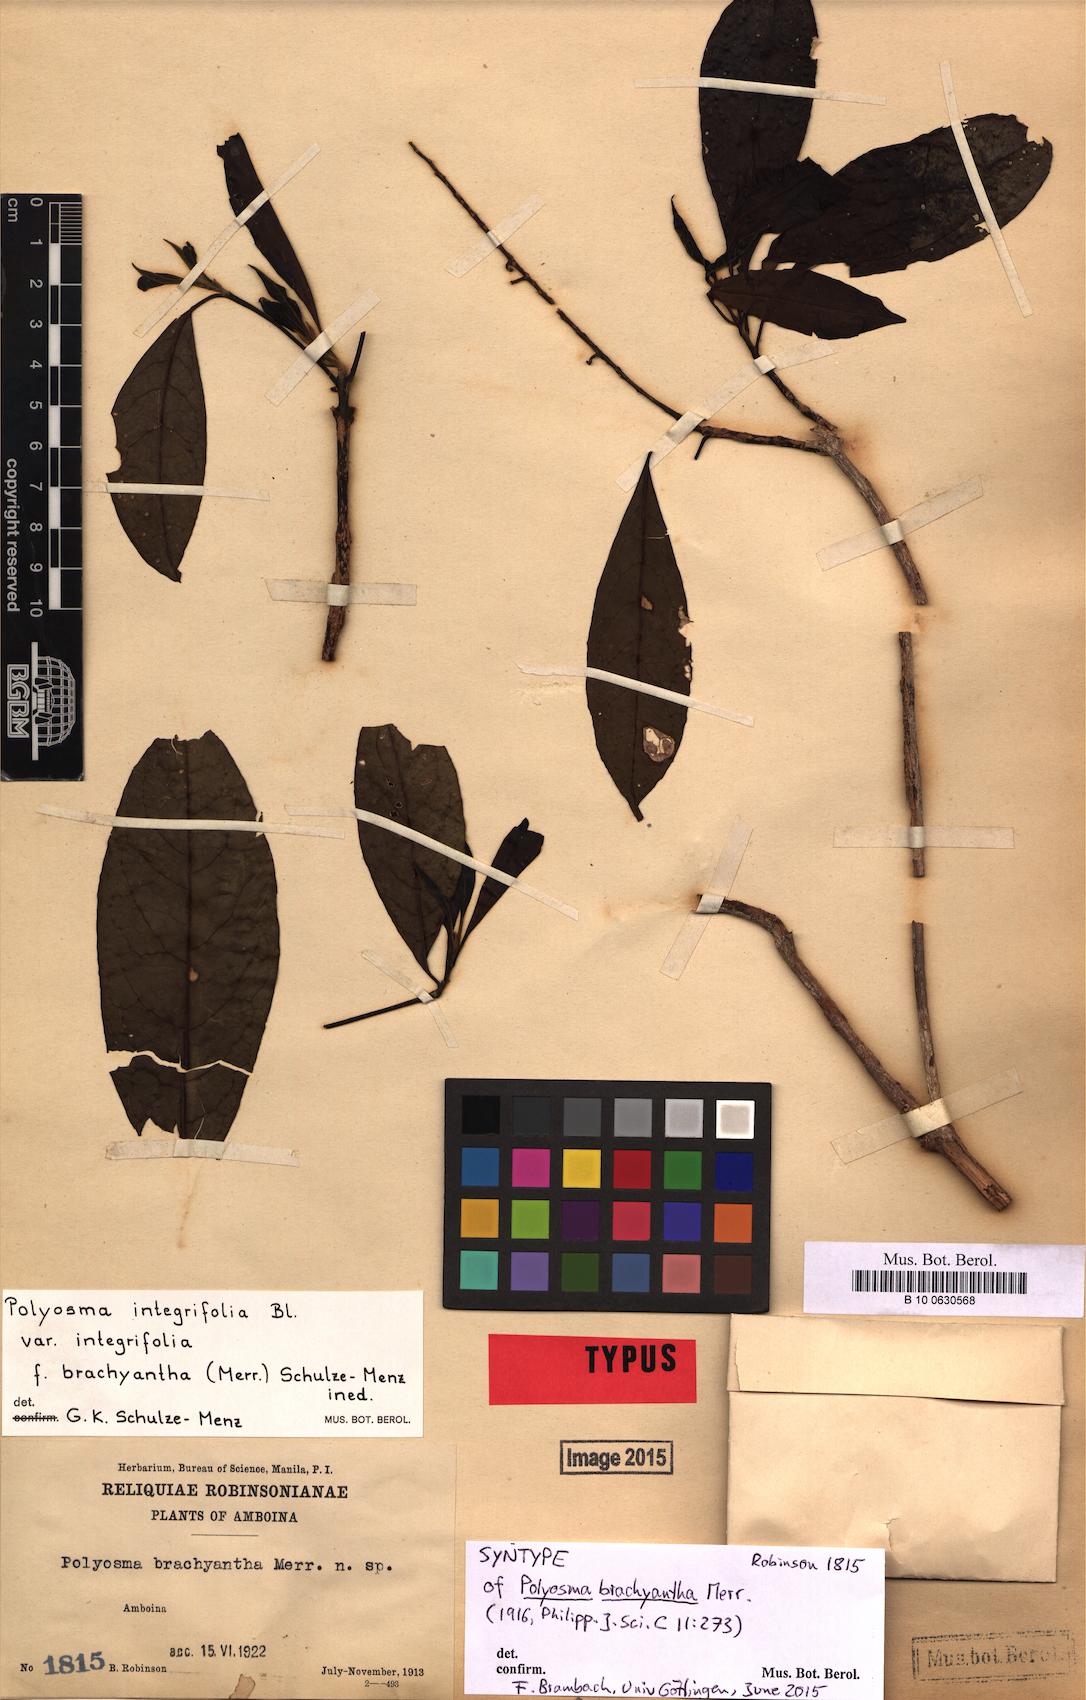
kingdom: Plantae
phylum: Tracheophyta
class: Magnoliopsida
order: Escalloniales
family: Escalloniaceae
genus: Polyosma
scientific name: Polyosma integrifolia
